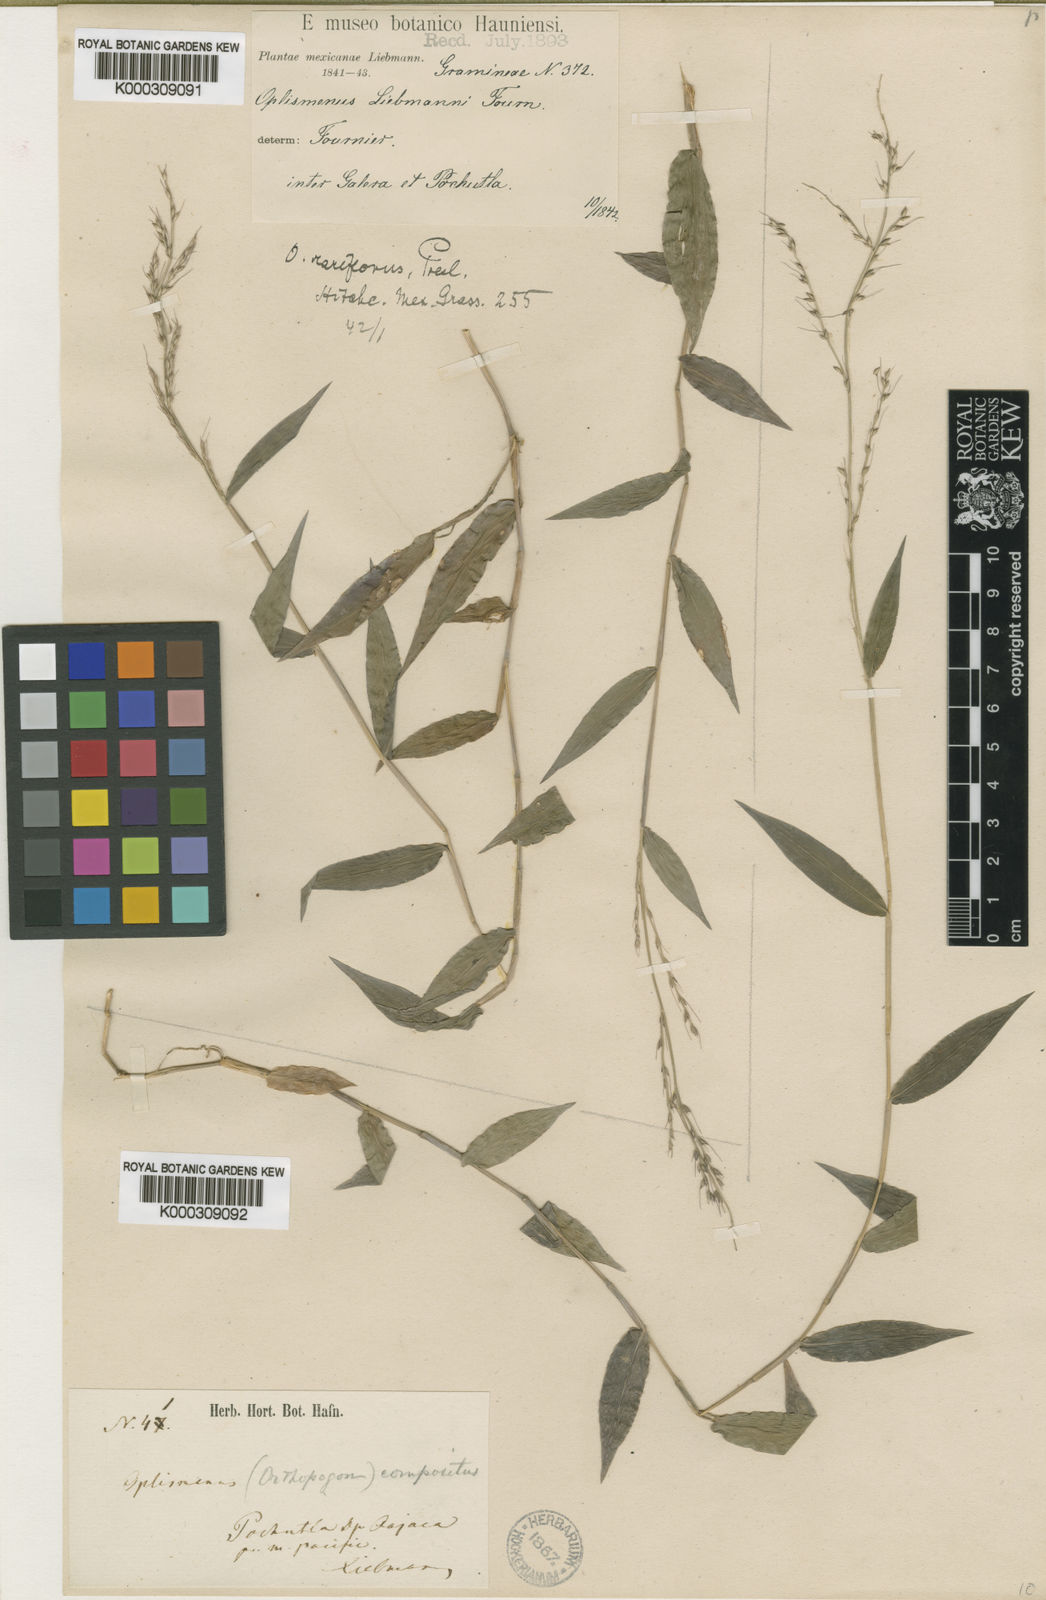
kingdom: Plantae
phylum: Tracheophyta
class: Liliopsida
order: Poales
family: Poaceae
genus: Oplismenus
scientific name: Oplismenus compositus
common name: Running mountain grass
